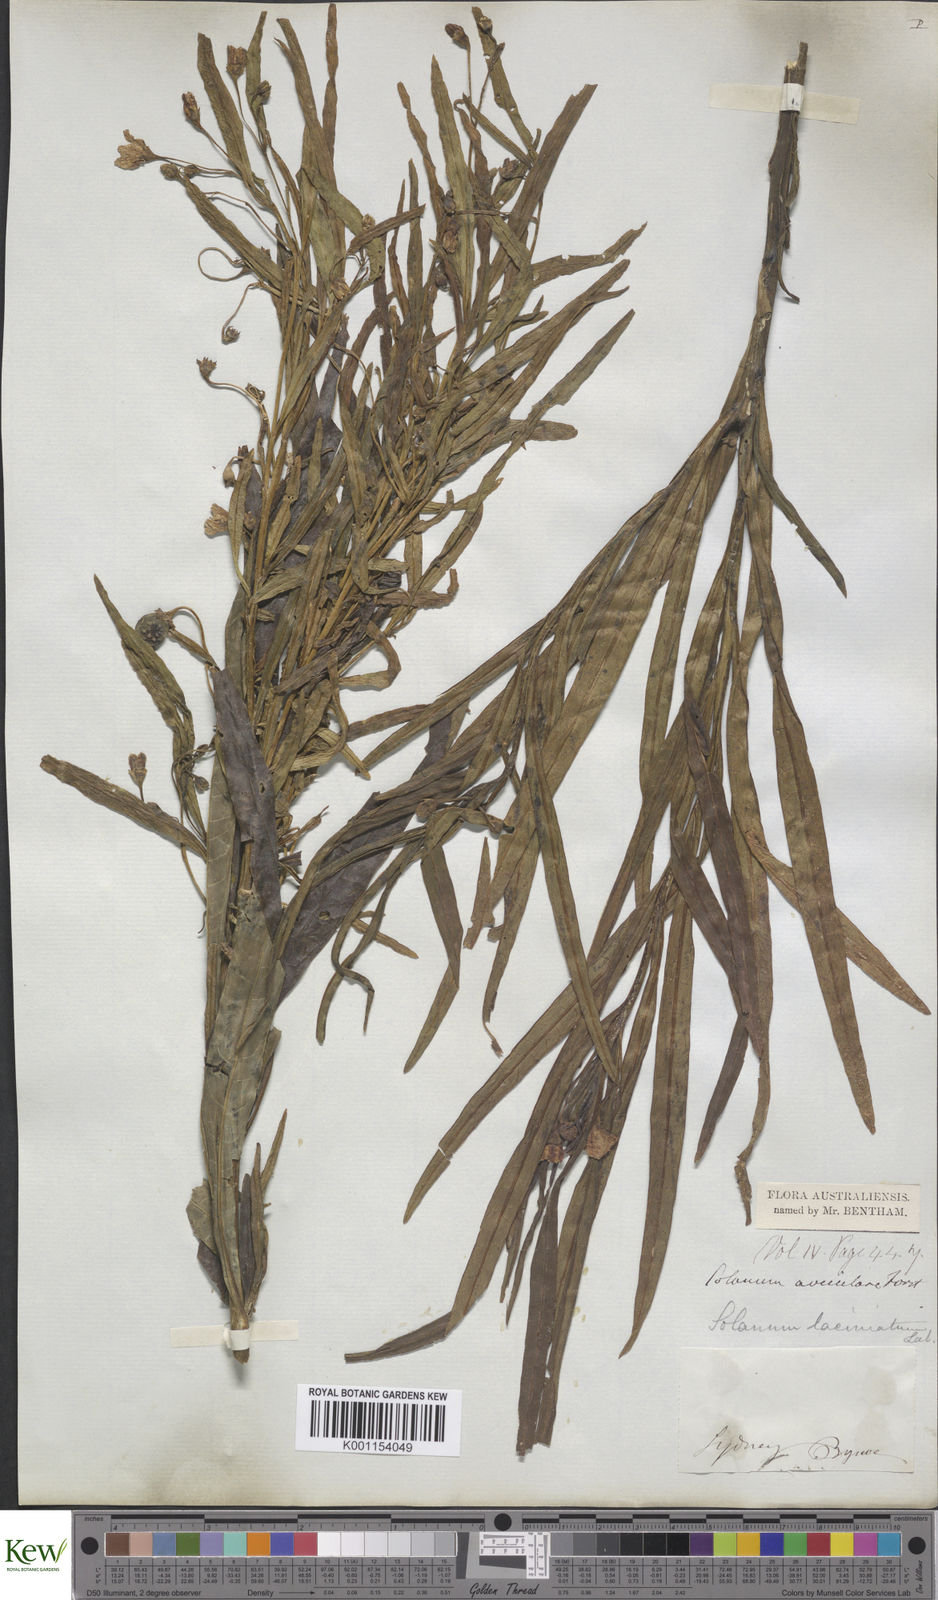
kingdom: Plantae
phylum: Tracheophyta
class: Magnoliopsida
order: Solanales
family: Solanaceae
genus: Solanum
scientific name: Solanum linearifolium
